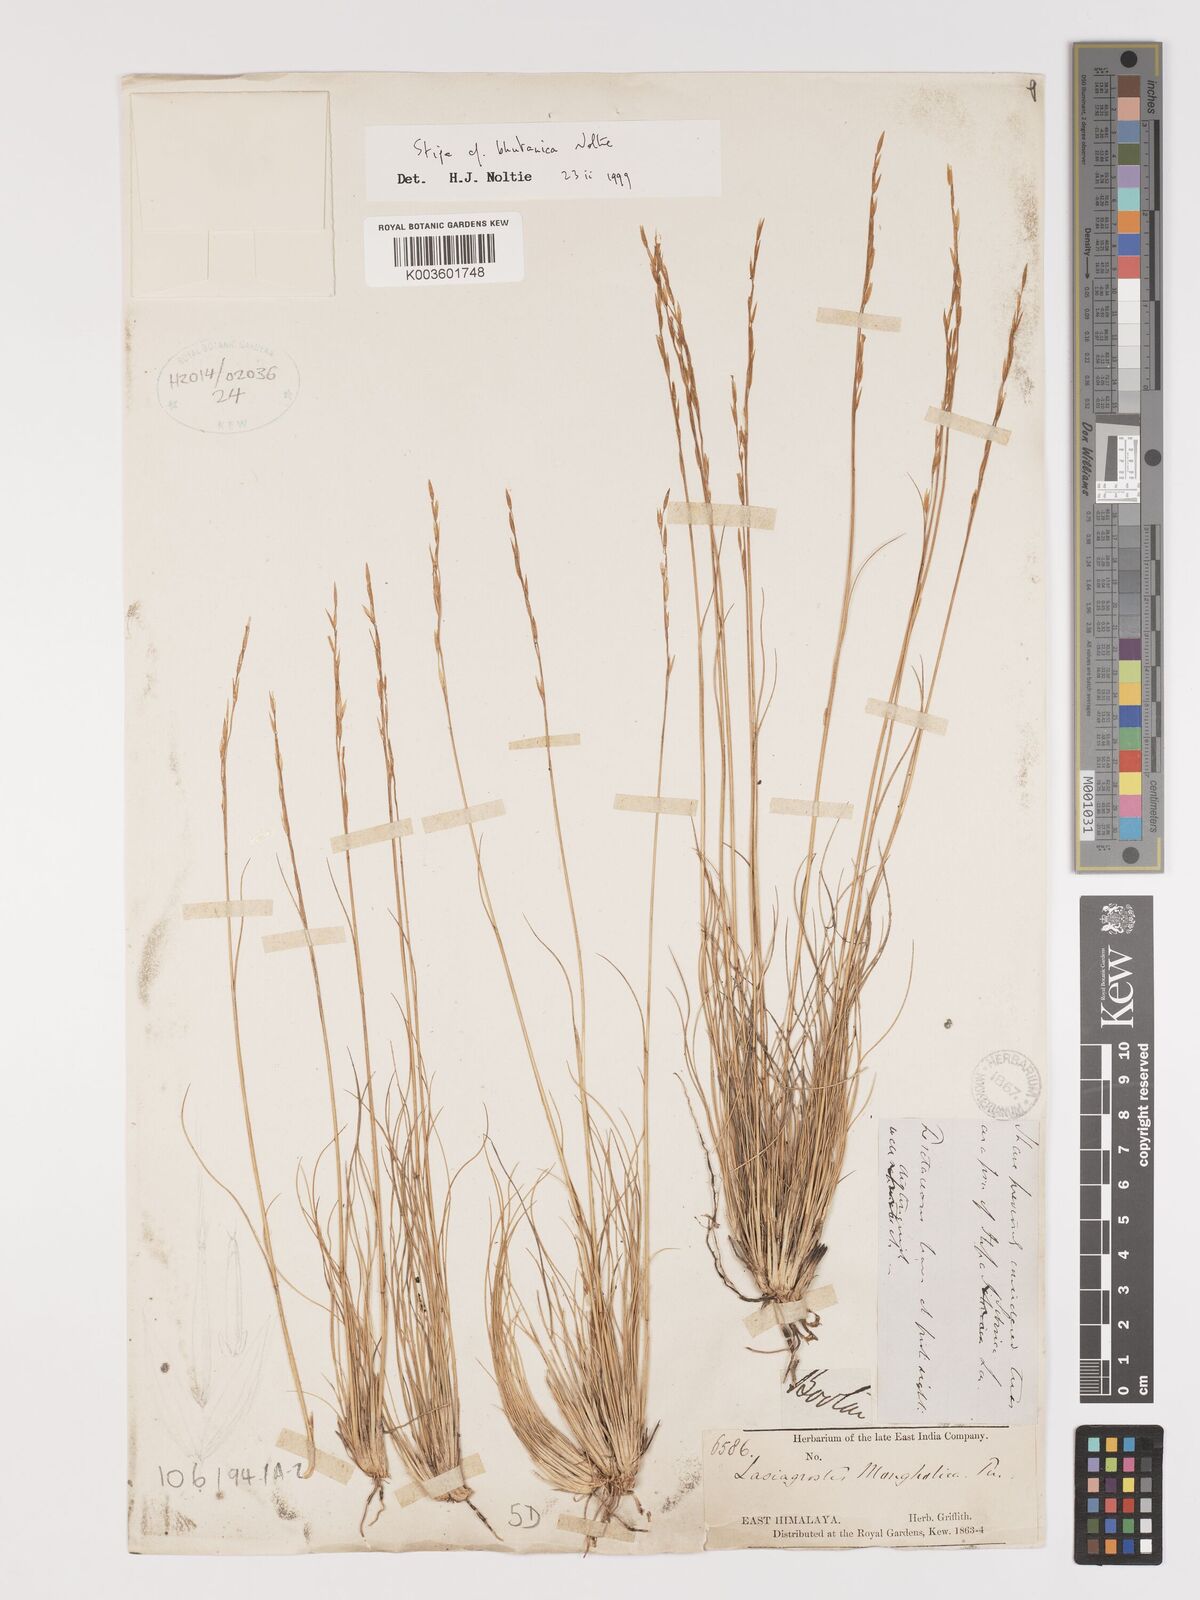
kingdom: Plantae
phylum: Tracheophyta
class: Liliopsida
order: Poales
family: Poaceae
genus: Ptilagrostis
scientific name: Ptilagrostis bhutanica
